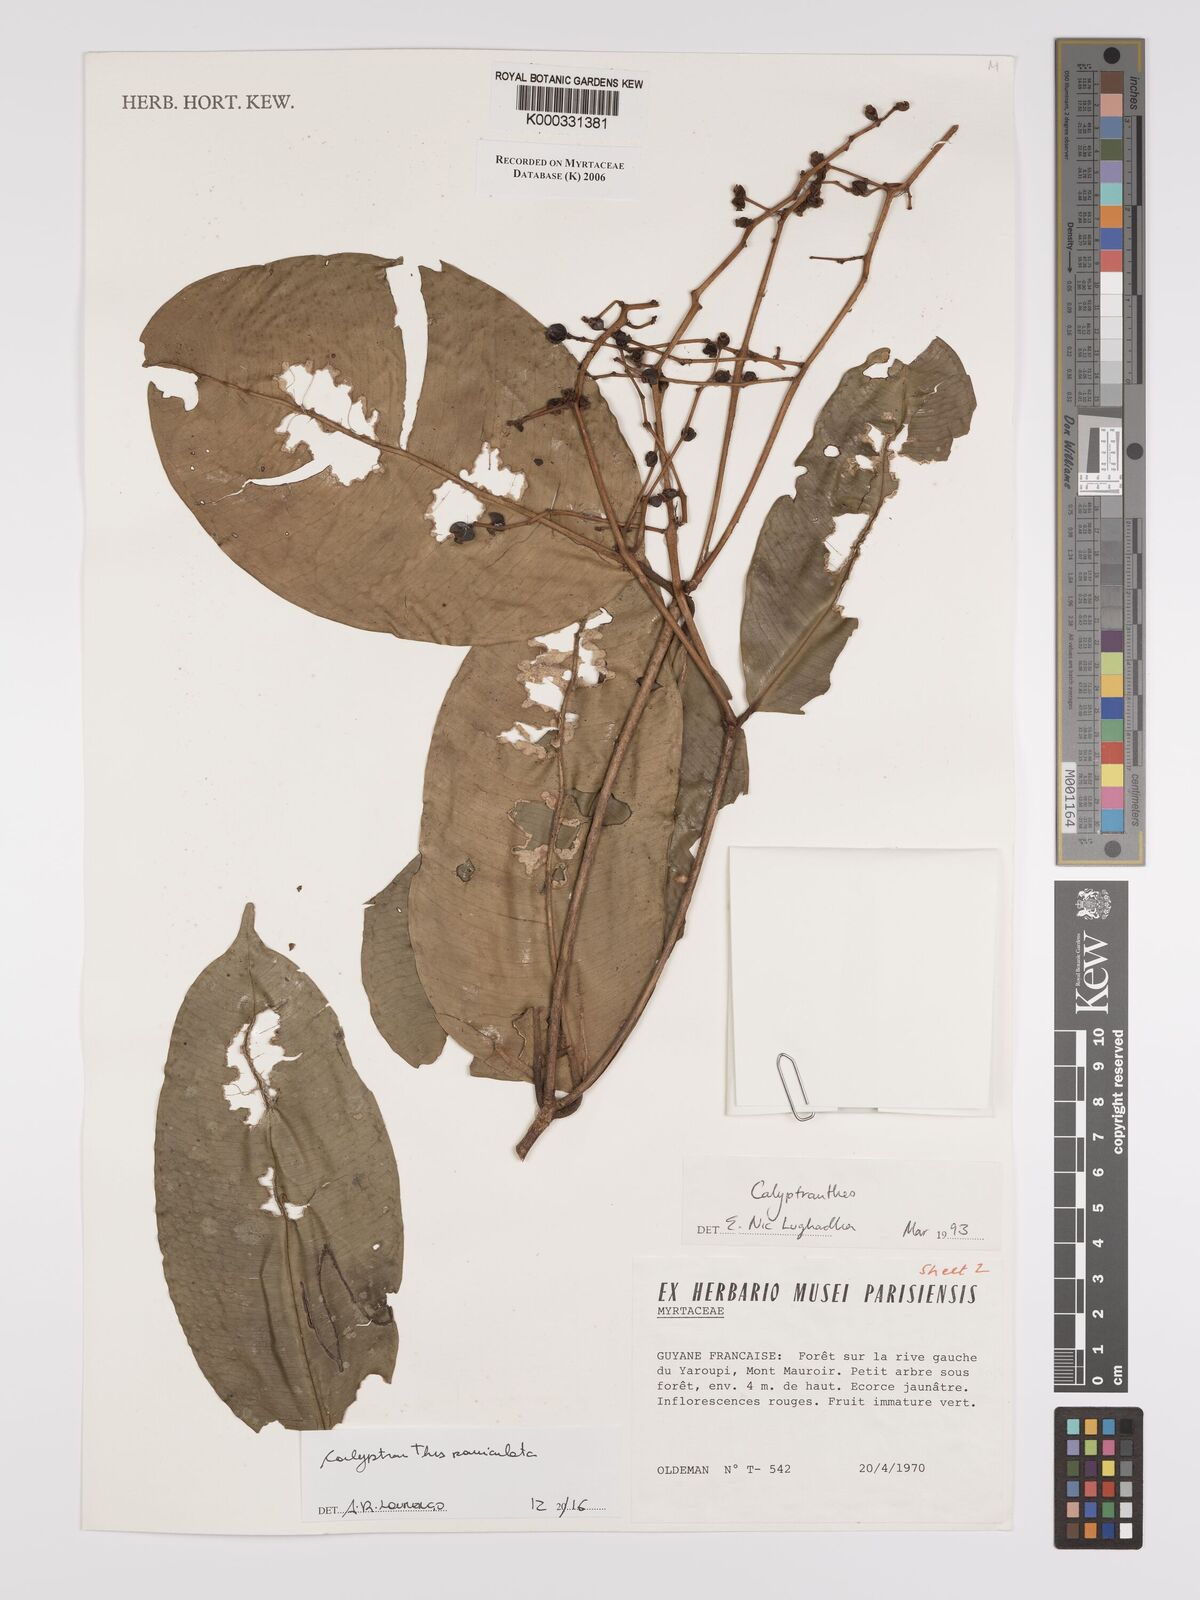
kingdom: Plantae
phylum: Tracheophyta
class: Magnoliopsida
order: Myrtales
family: Myrtaceae
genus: Calyptranthes
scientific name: Calyptranthes
